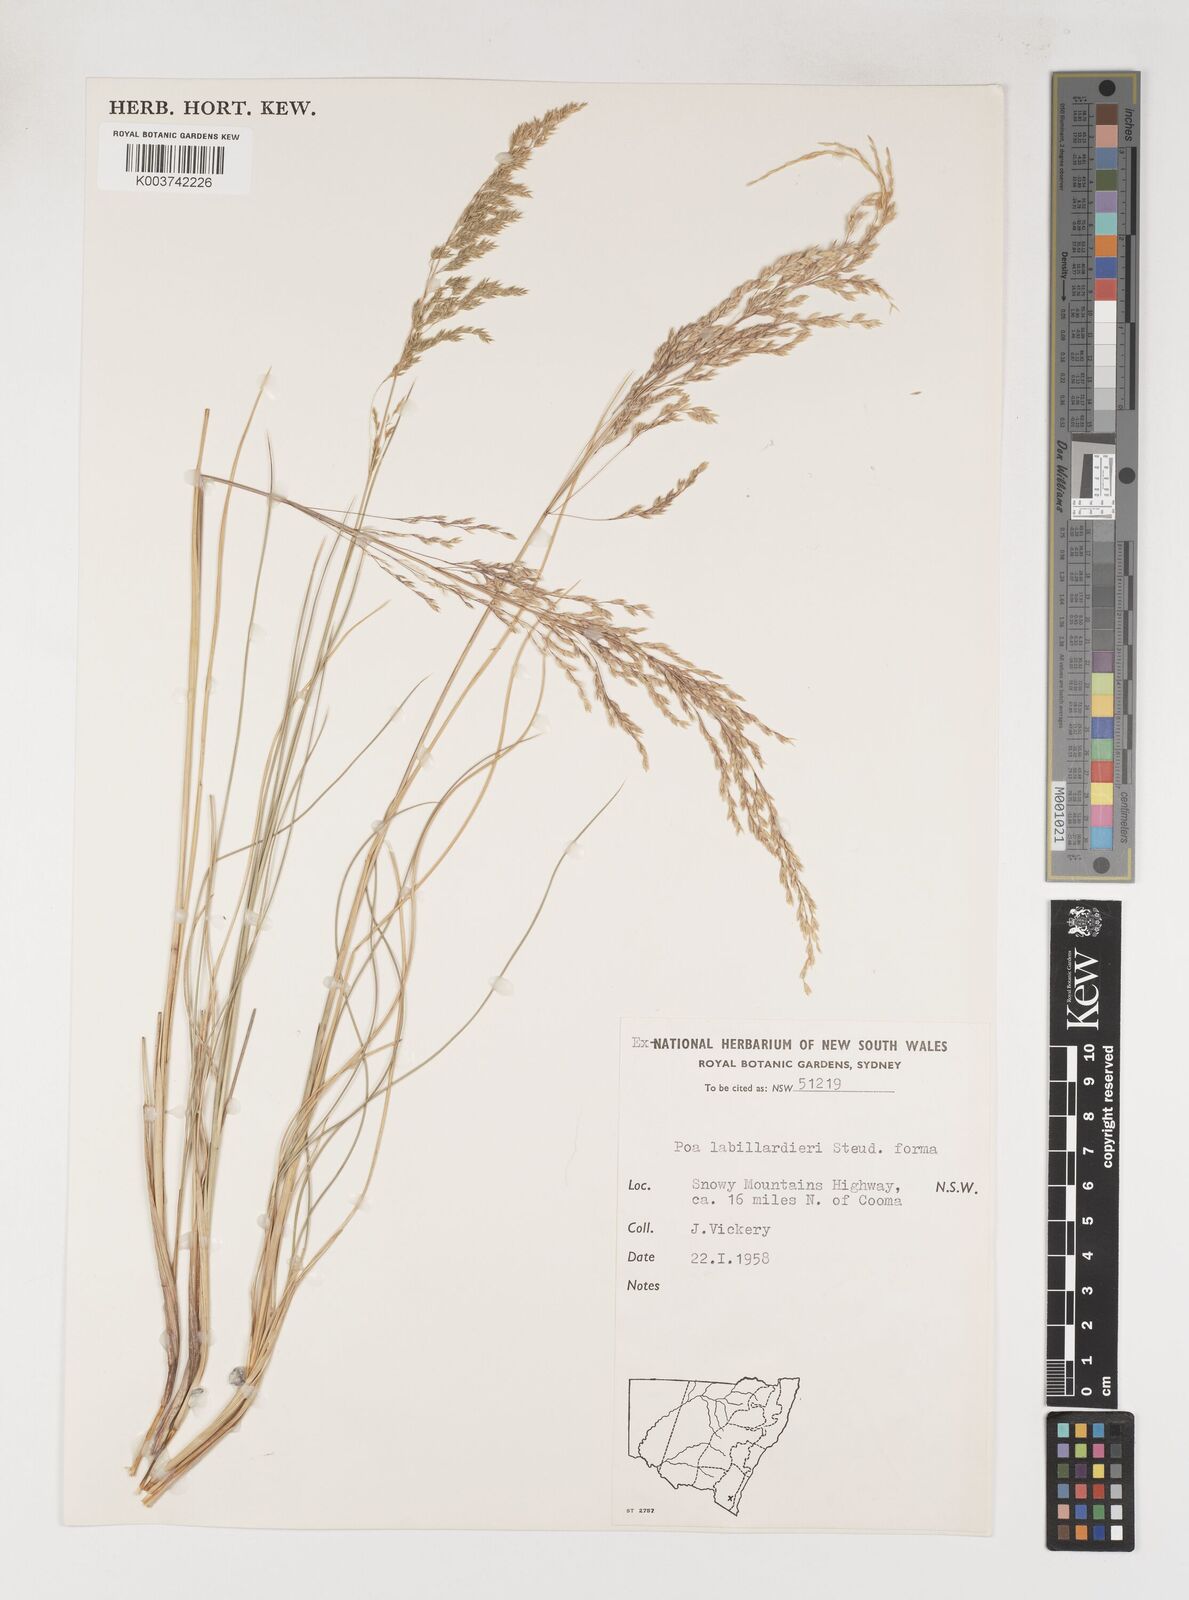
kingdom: Plantae
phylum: Tracheophyta
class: Liliopsida
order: Poales
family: Poaceae
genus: Poa
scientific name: Poa labillardierei
